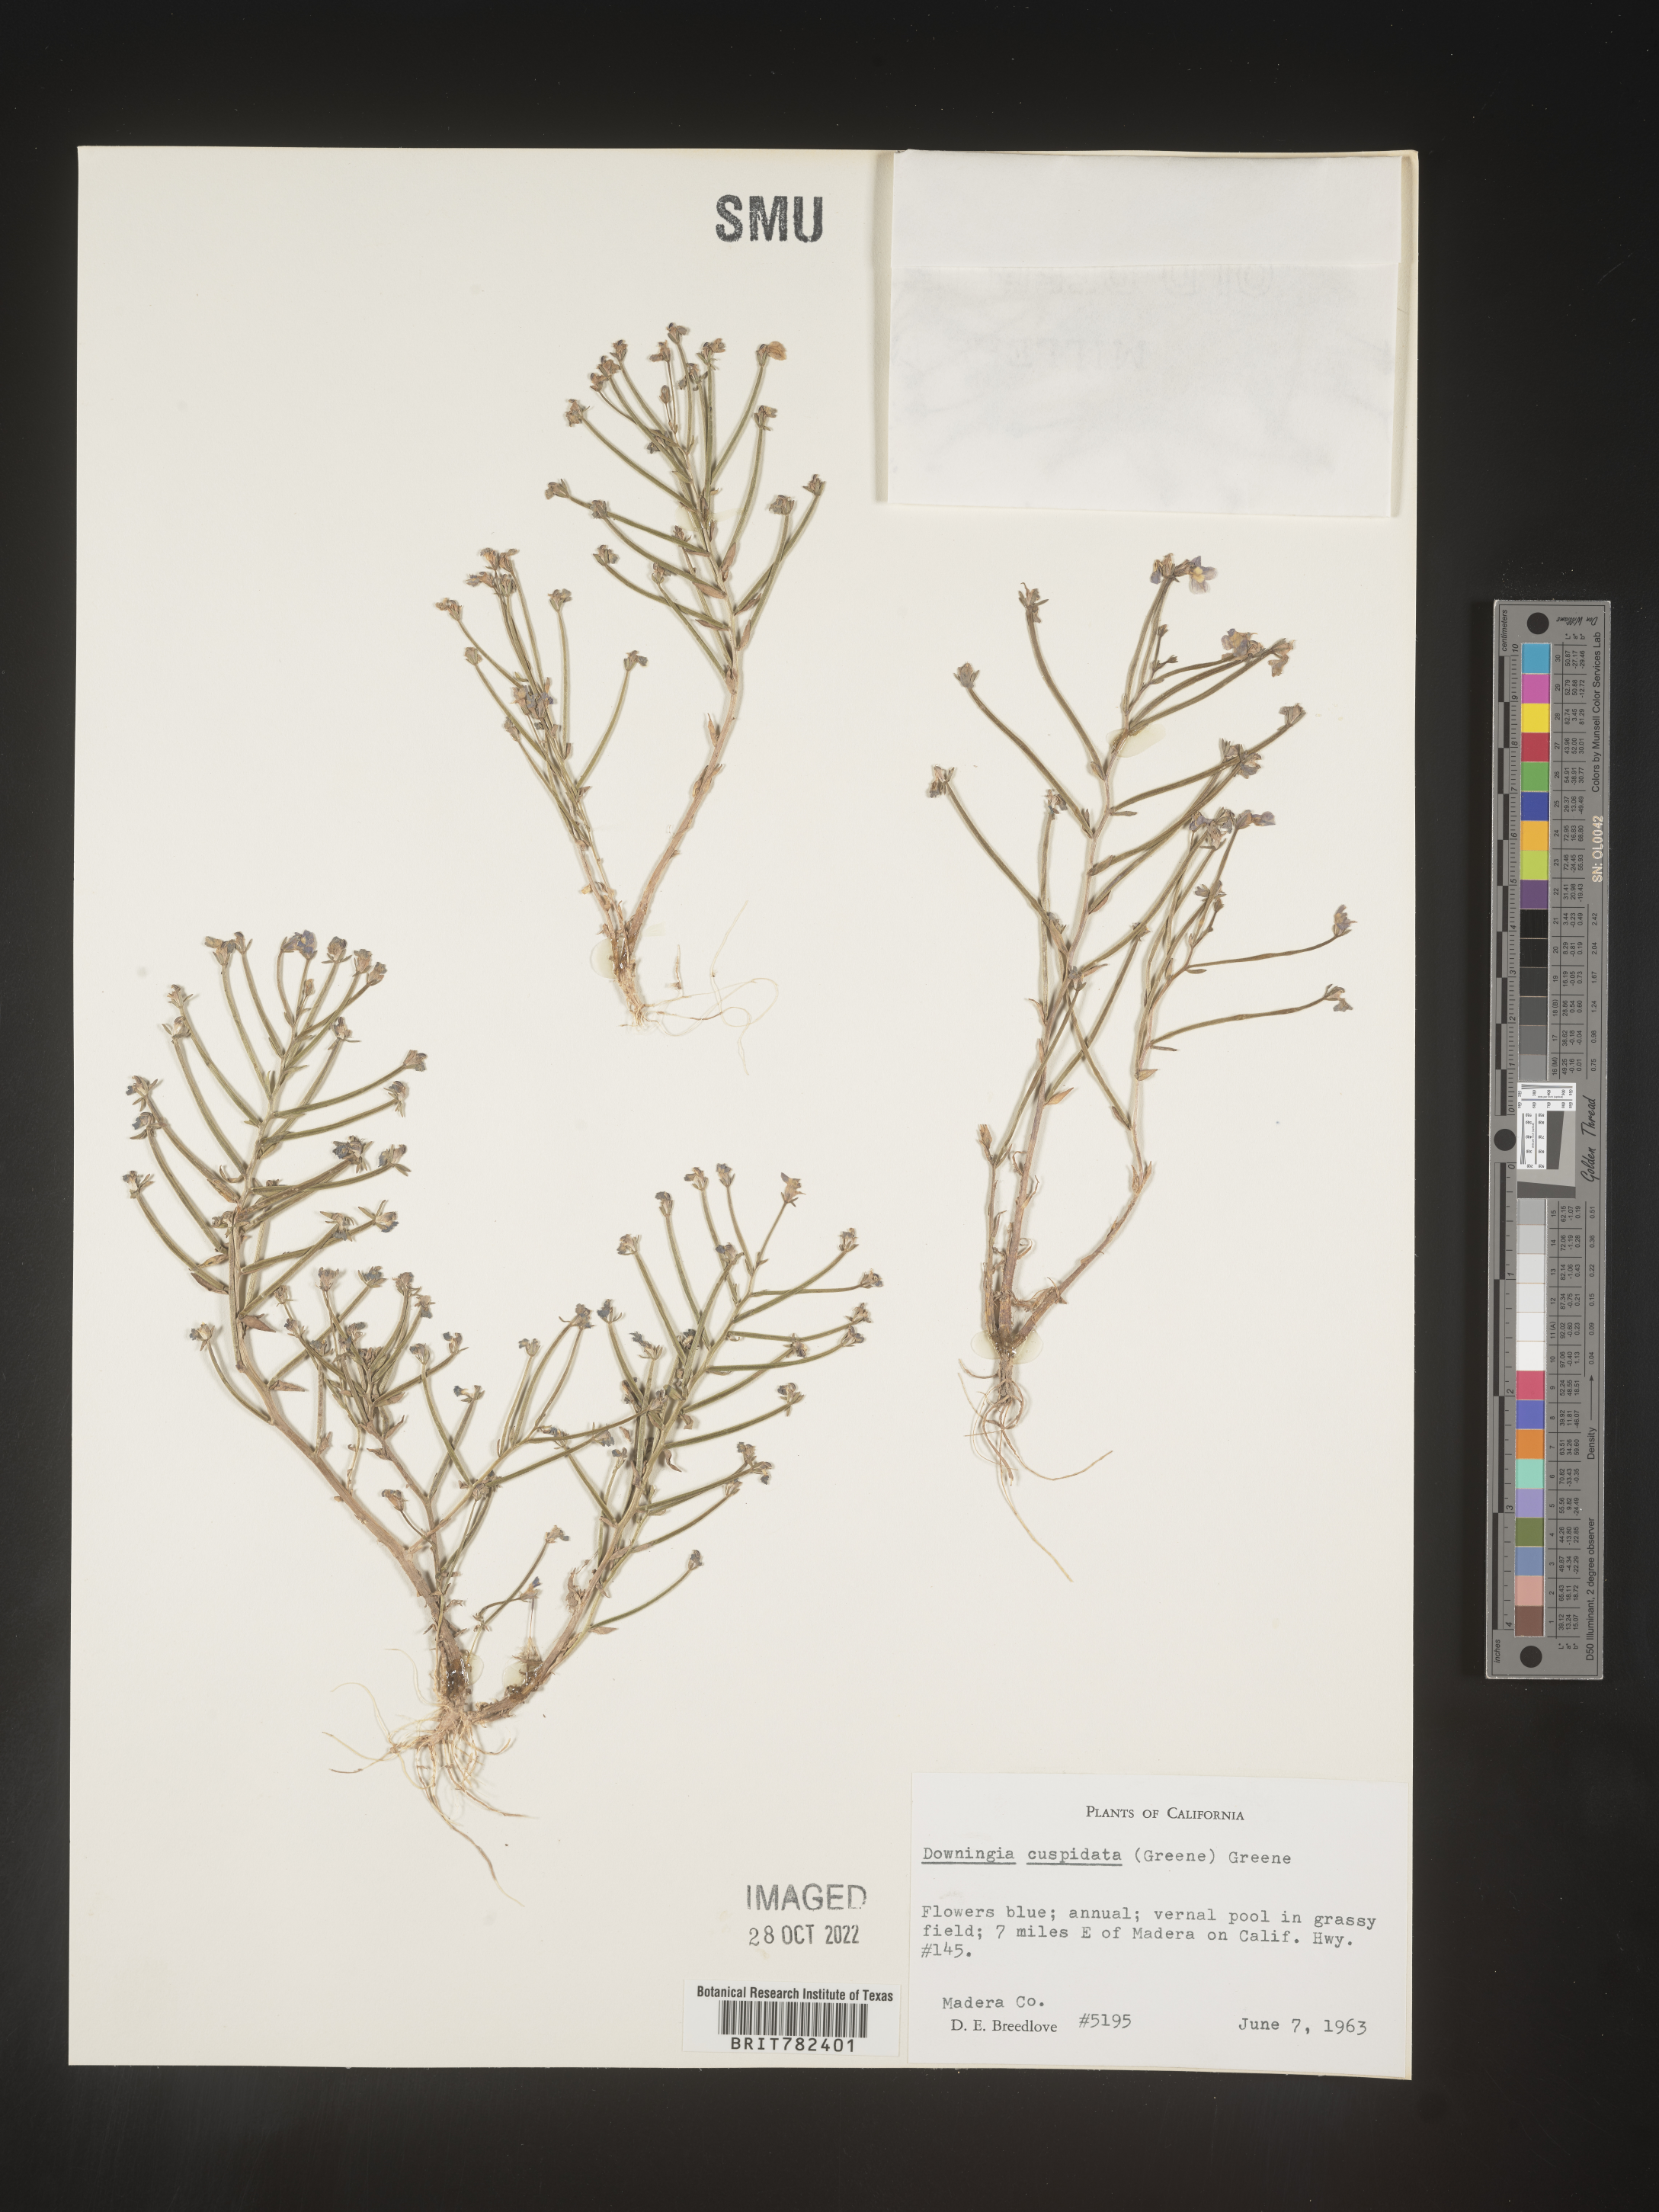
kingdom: Plantae
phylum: Tracheophyta
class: Magnoliopsida
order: Asterales
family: Campanulaceae
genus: Downingia
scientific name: Downingia
